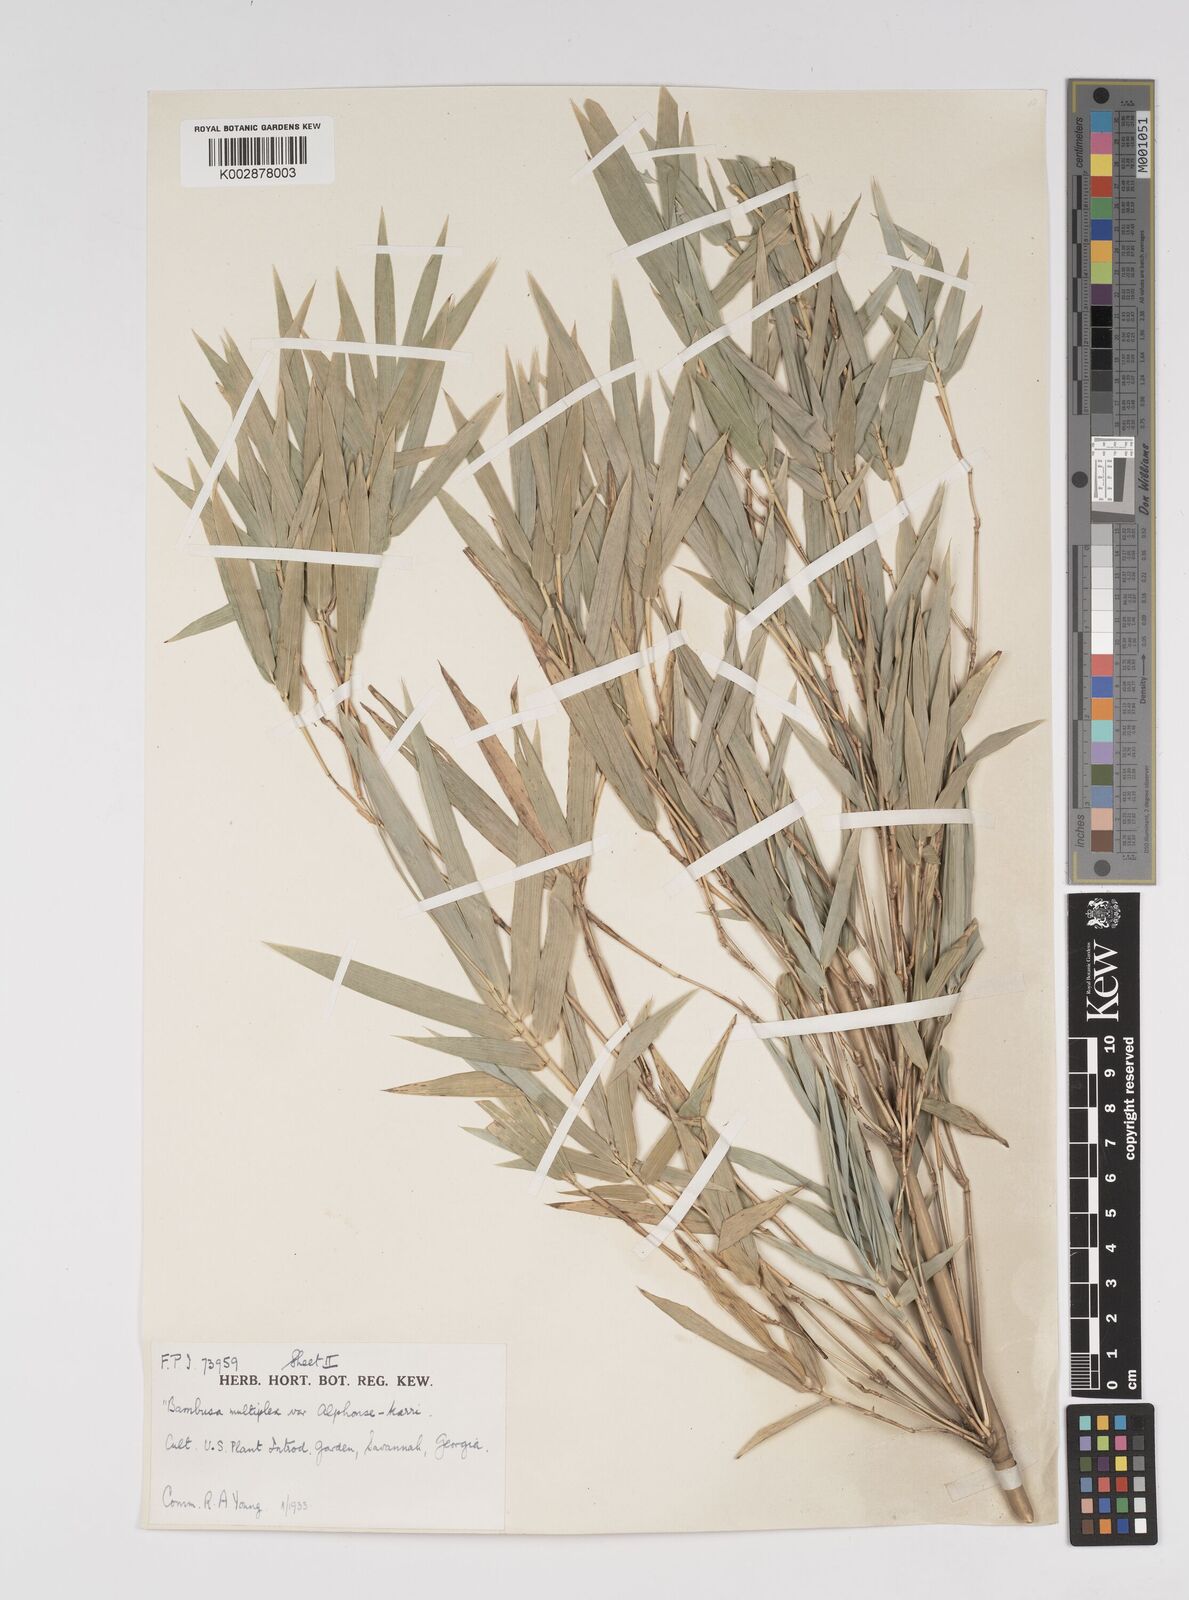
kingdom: Plantae
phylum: Tracheophyta
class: Liliopsida
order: Poales
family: Poaceae
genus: Bambusa
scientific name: Bambusa multiplex
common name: Hedge bamboo
